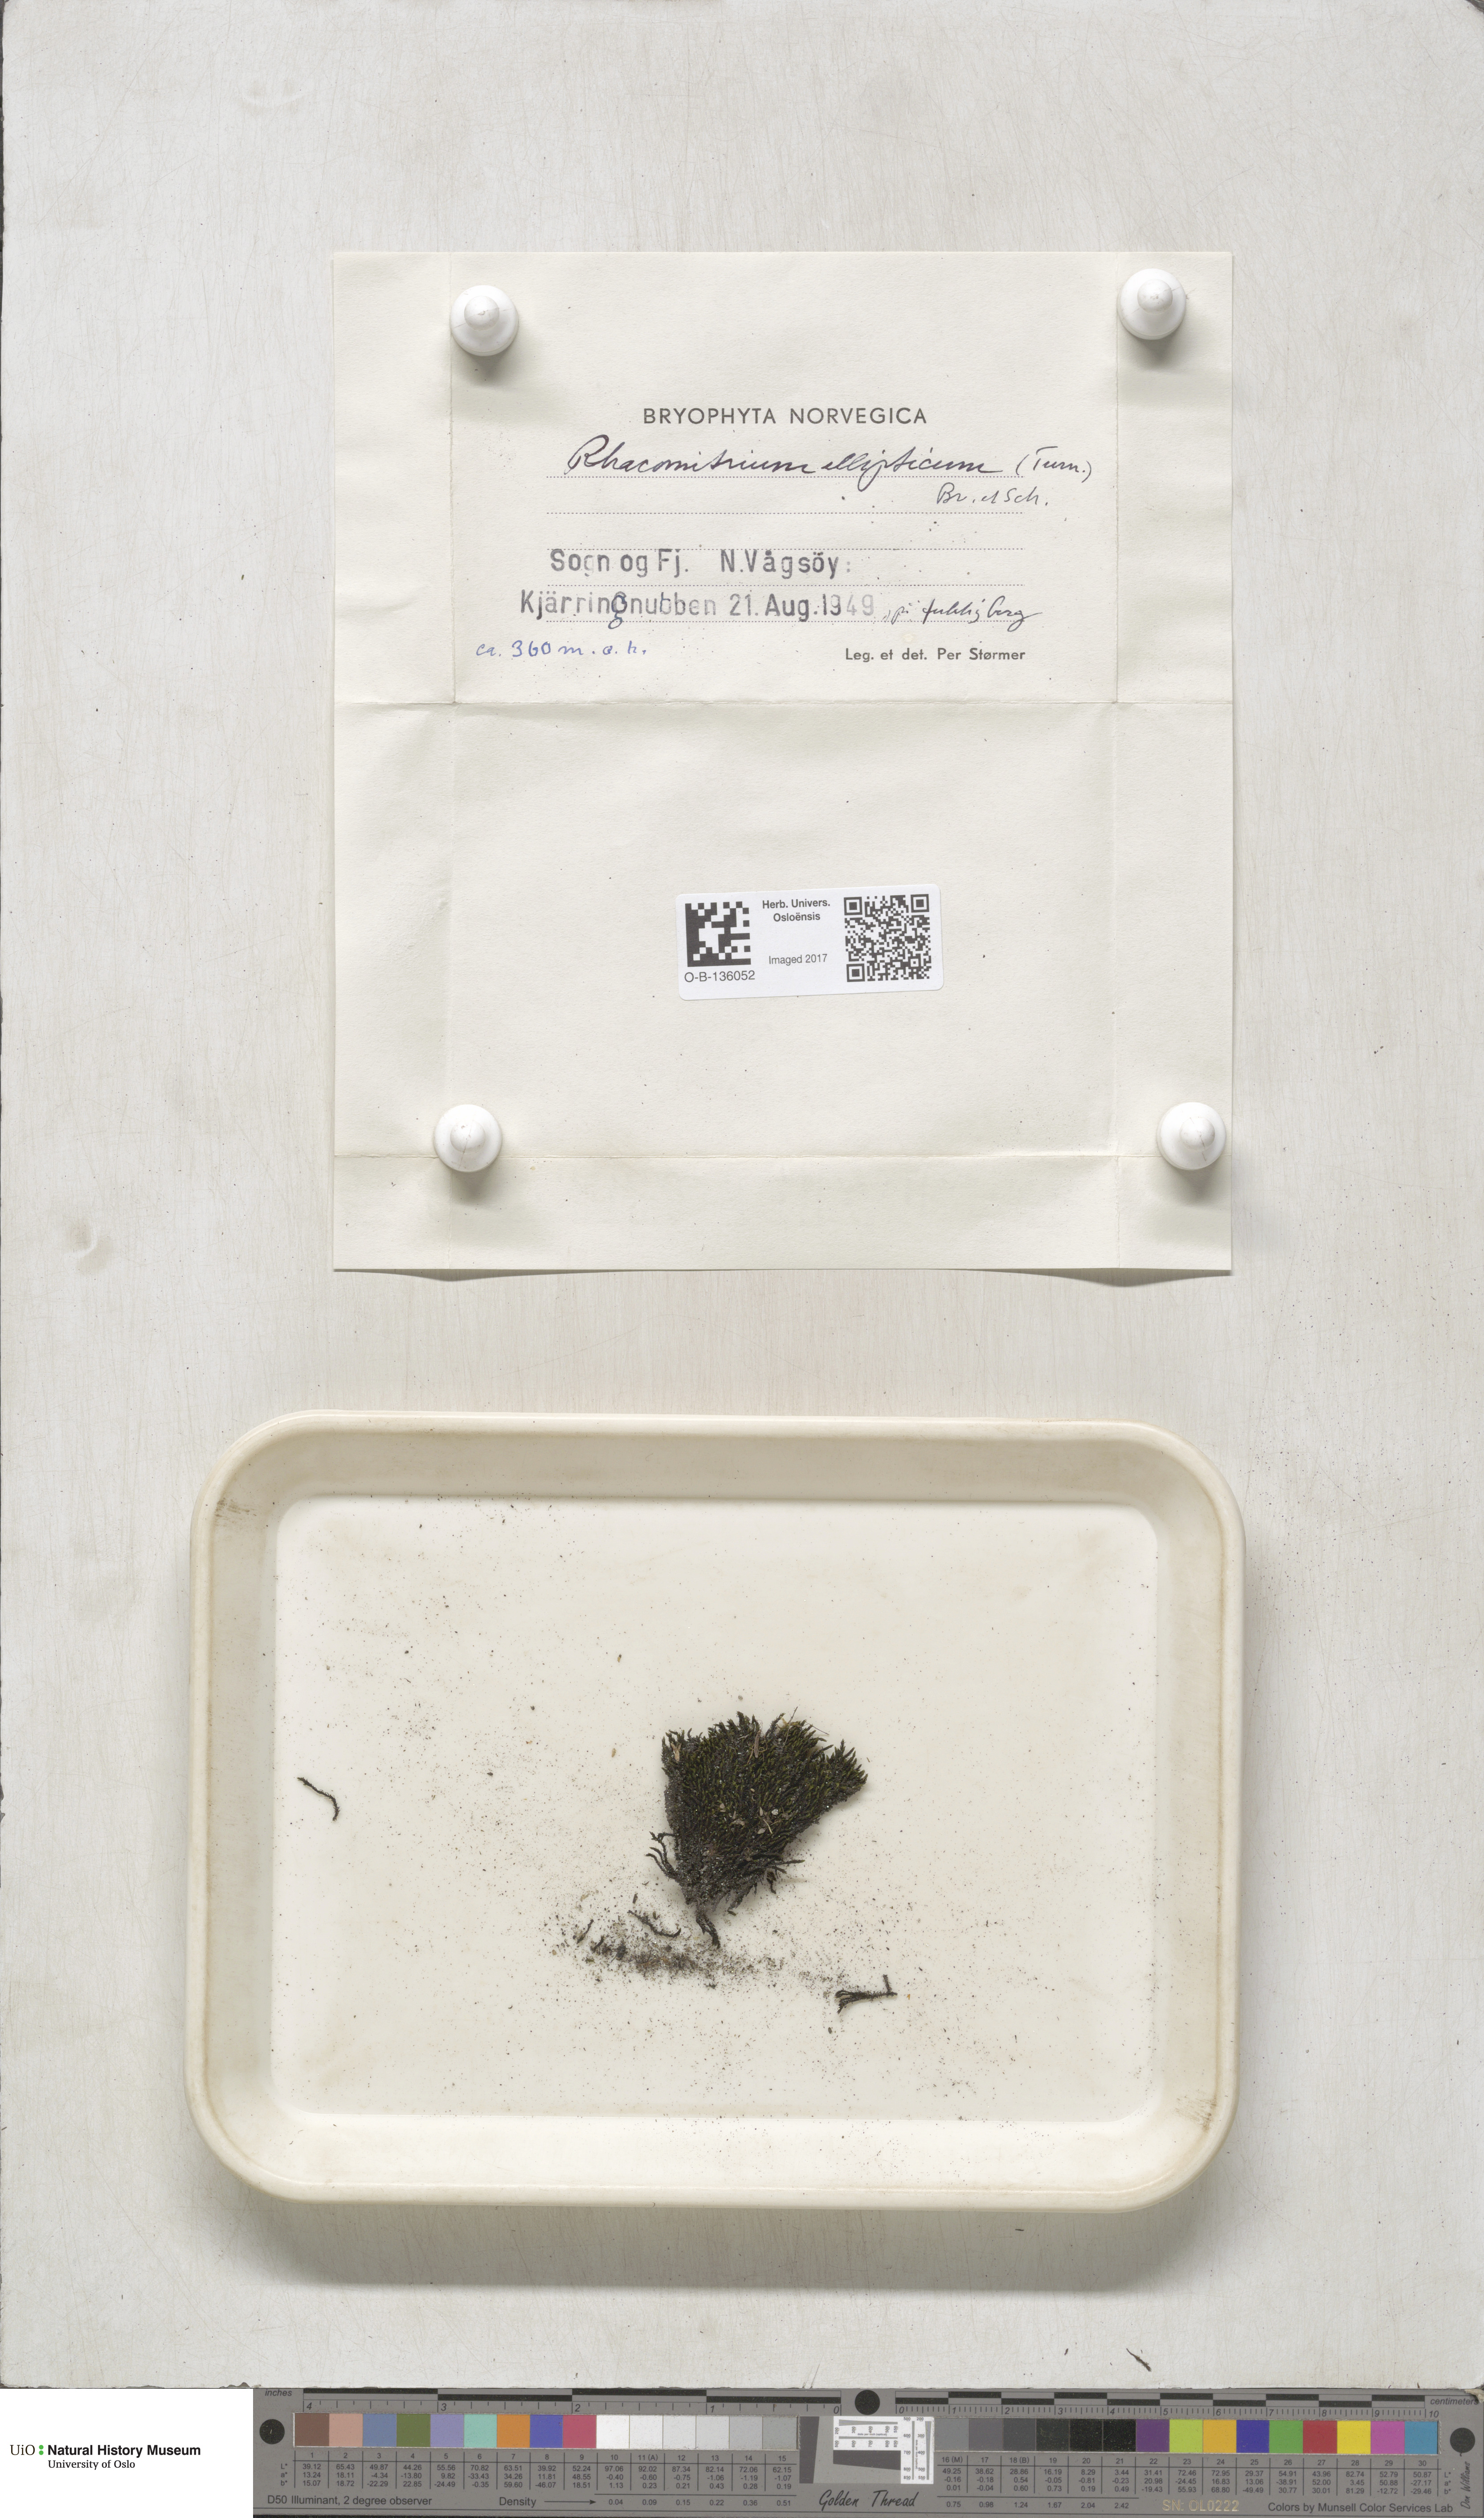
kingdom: Plantae
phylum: Bryophyta
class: Bryopsida
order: Grimmiales
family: Grimmiaceae
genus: Bucklandiella
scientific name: Bucklandiella elliptica
